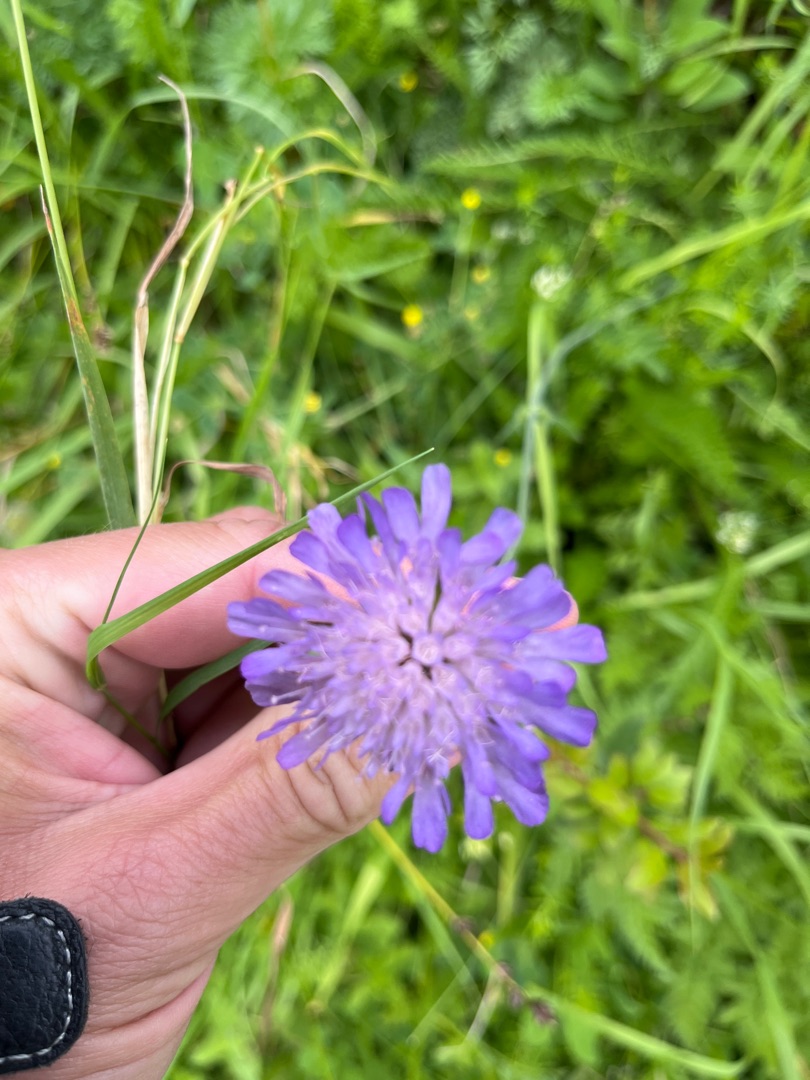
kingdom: Plantae
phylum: Tracheophyta
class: Magnoliopsida
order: Dipsacales
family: Caprifoliaceae
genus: Knautia
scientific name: Knautia arvensis
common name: Blåhat
